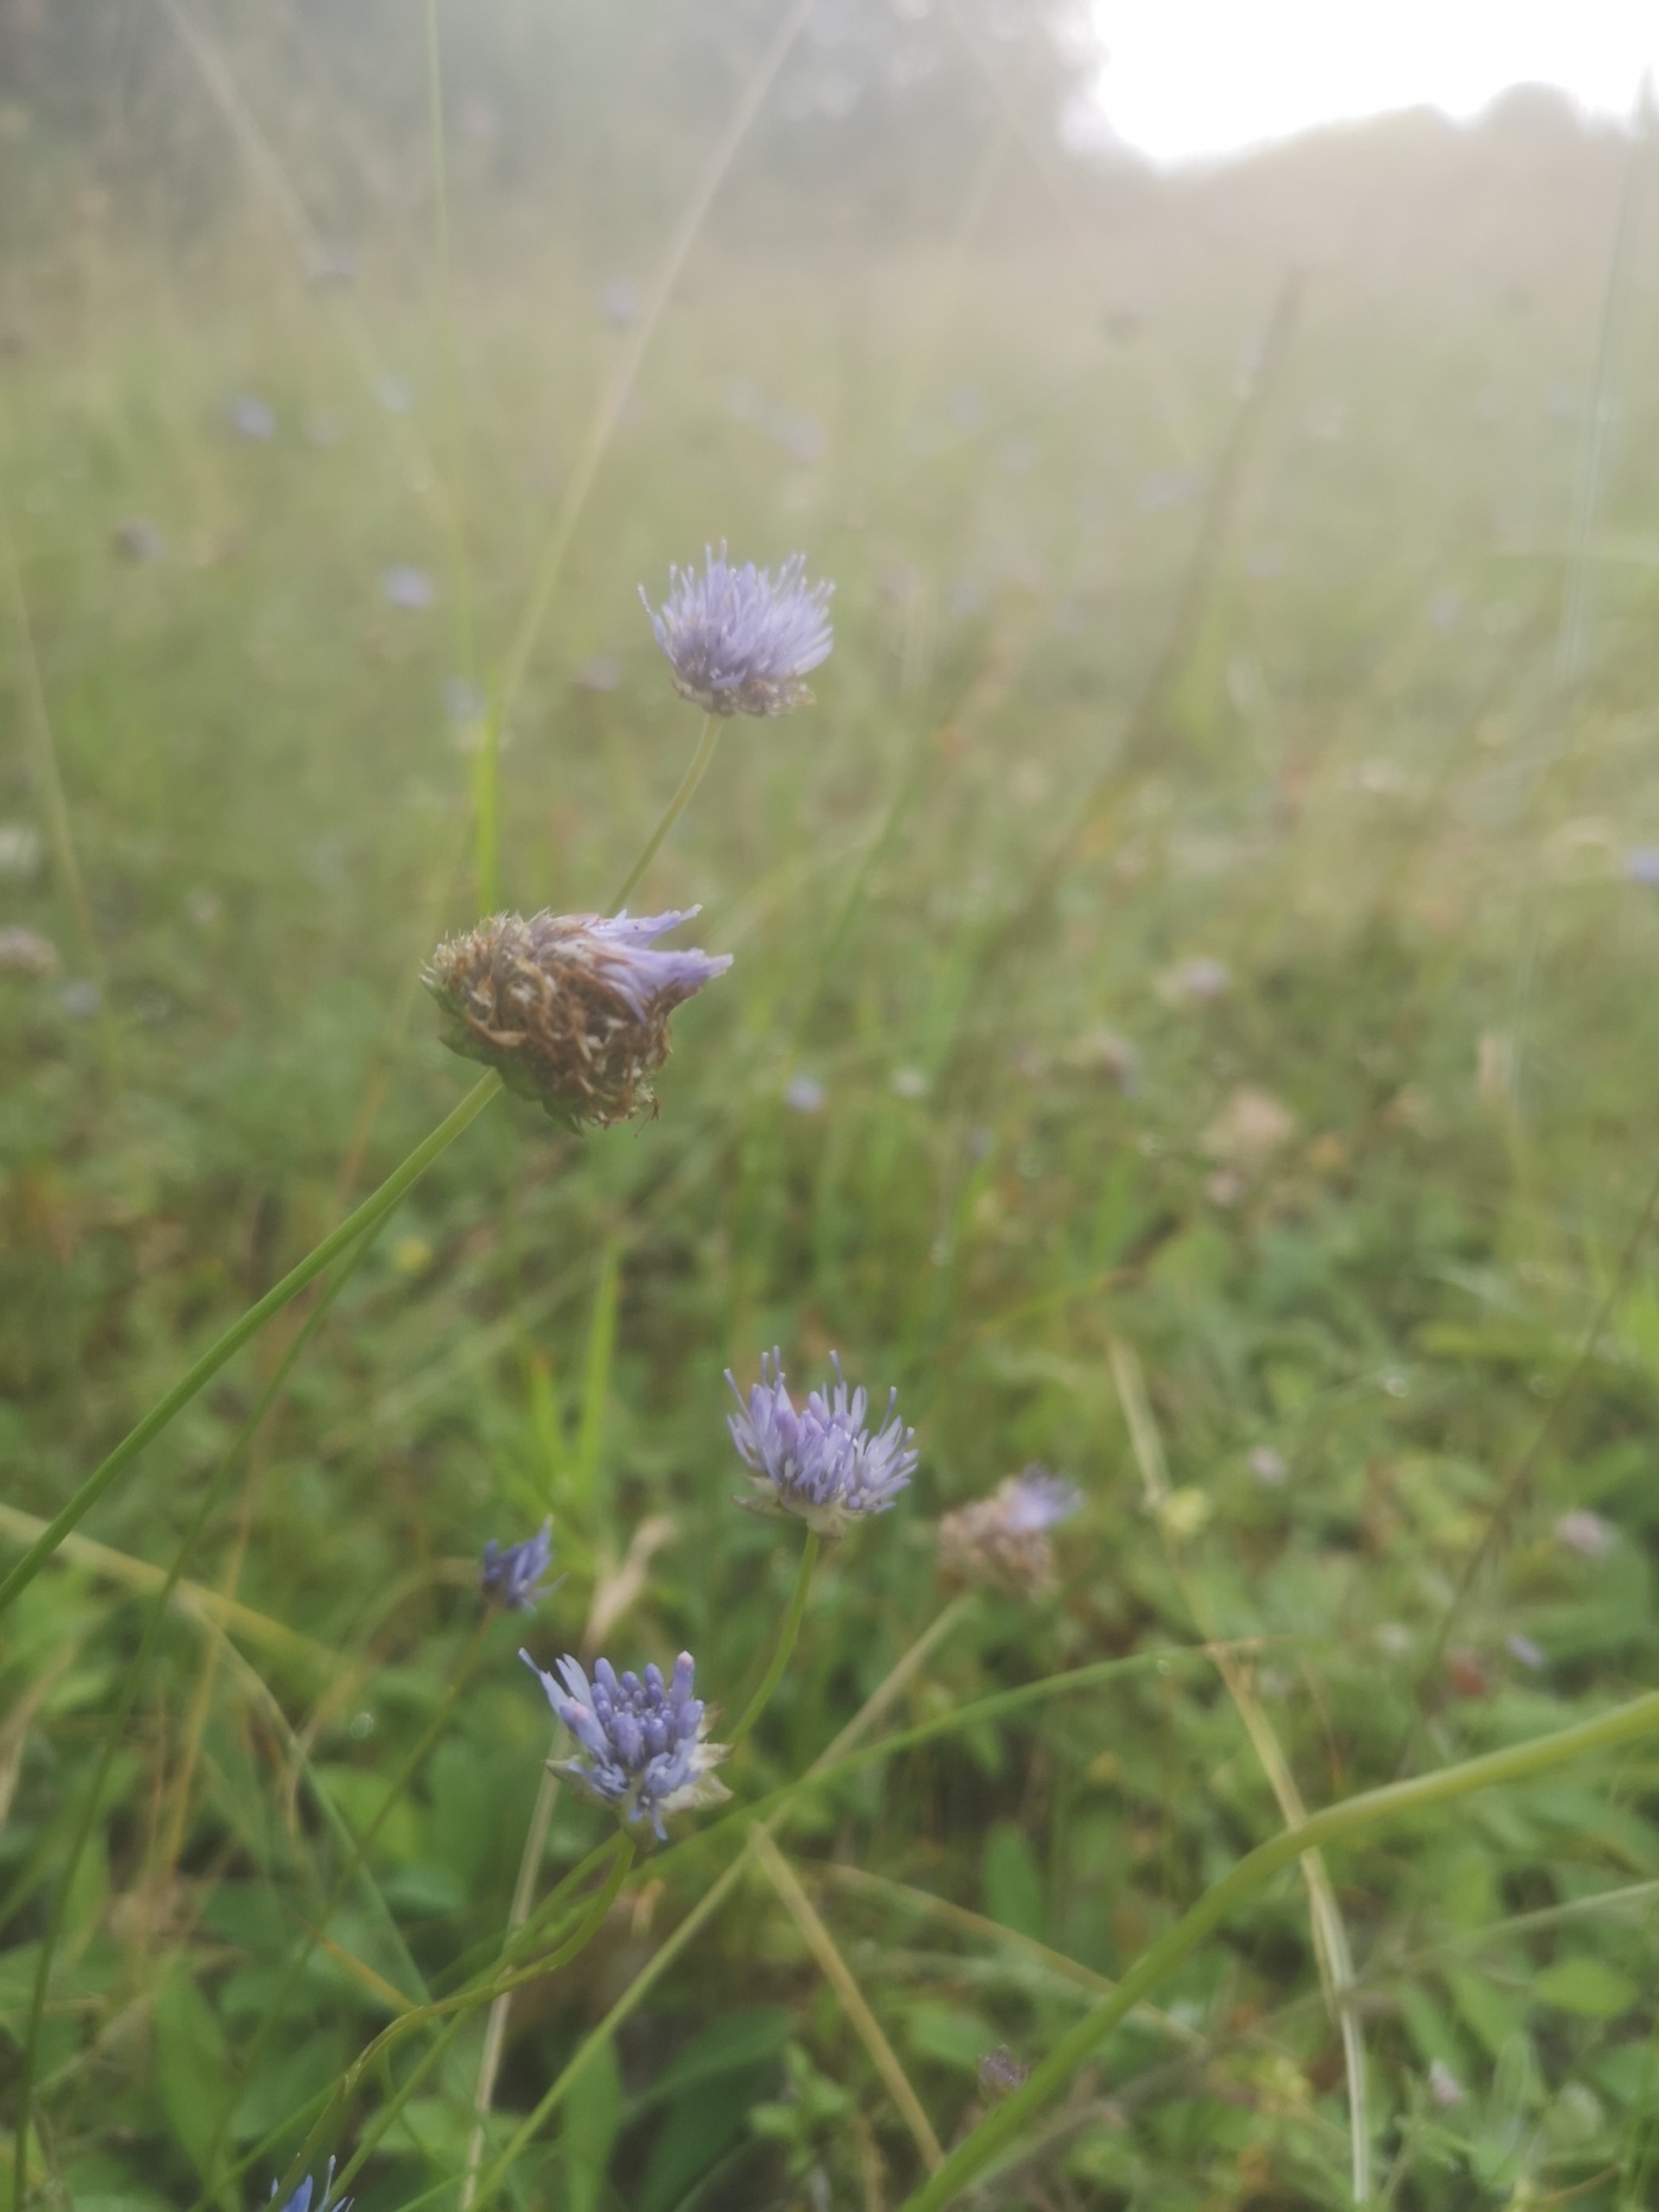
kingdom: Plantae
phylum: Tracheophyta
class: Magnoliopsida
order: Asterales
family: Campanulaceae
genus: Jasione
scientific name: Jasione montana
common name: Blåmunke
